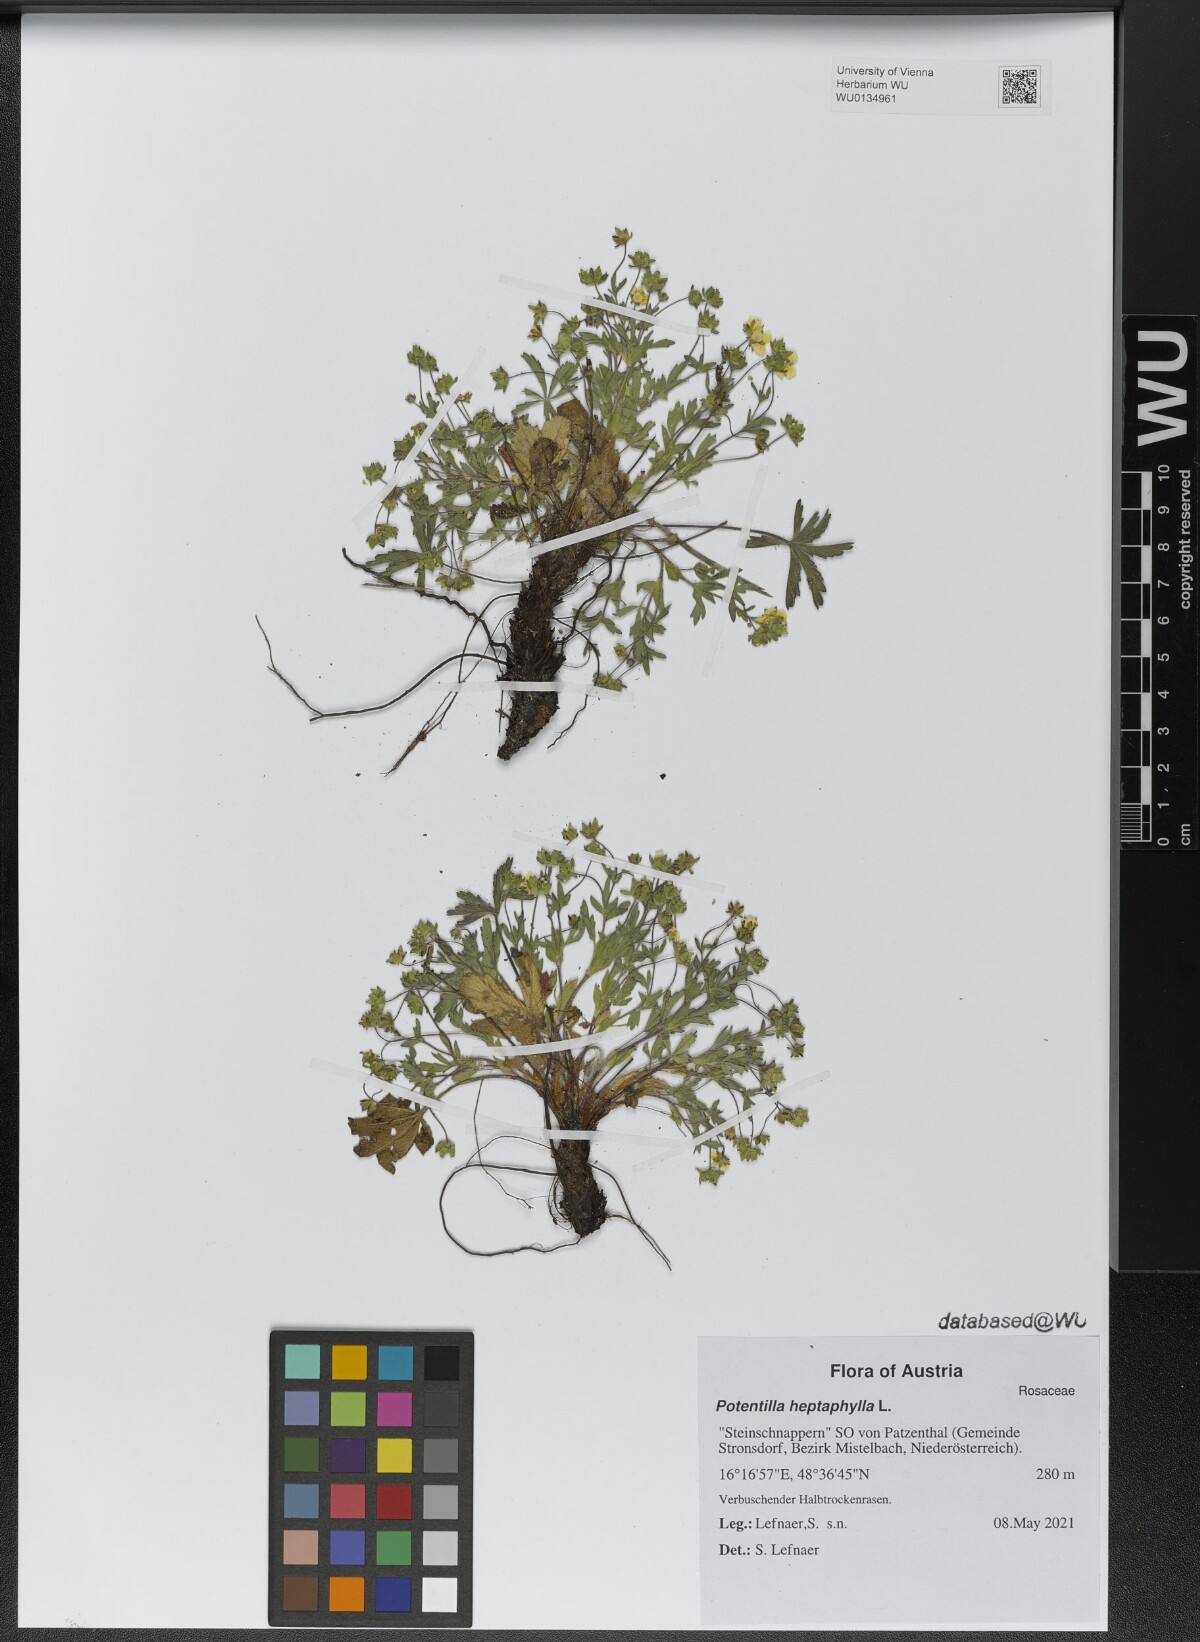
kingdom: Plantae
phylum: Tracheophyta
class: Magnoliopsida
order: Rosales
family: Rosaceae
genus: Potentilla
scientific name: Potentilla heptaphylla
